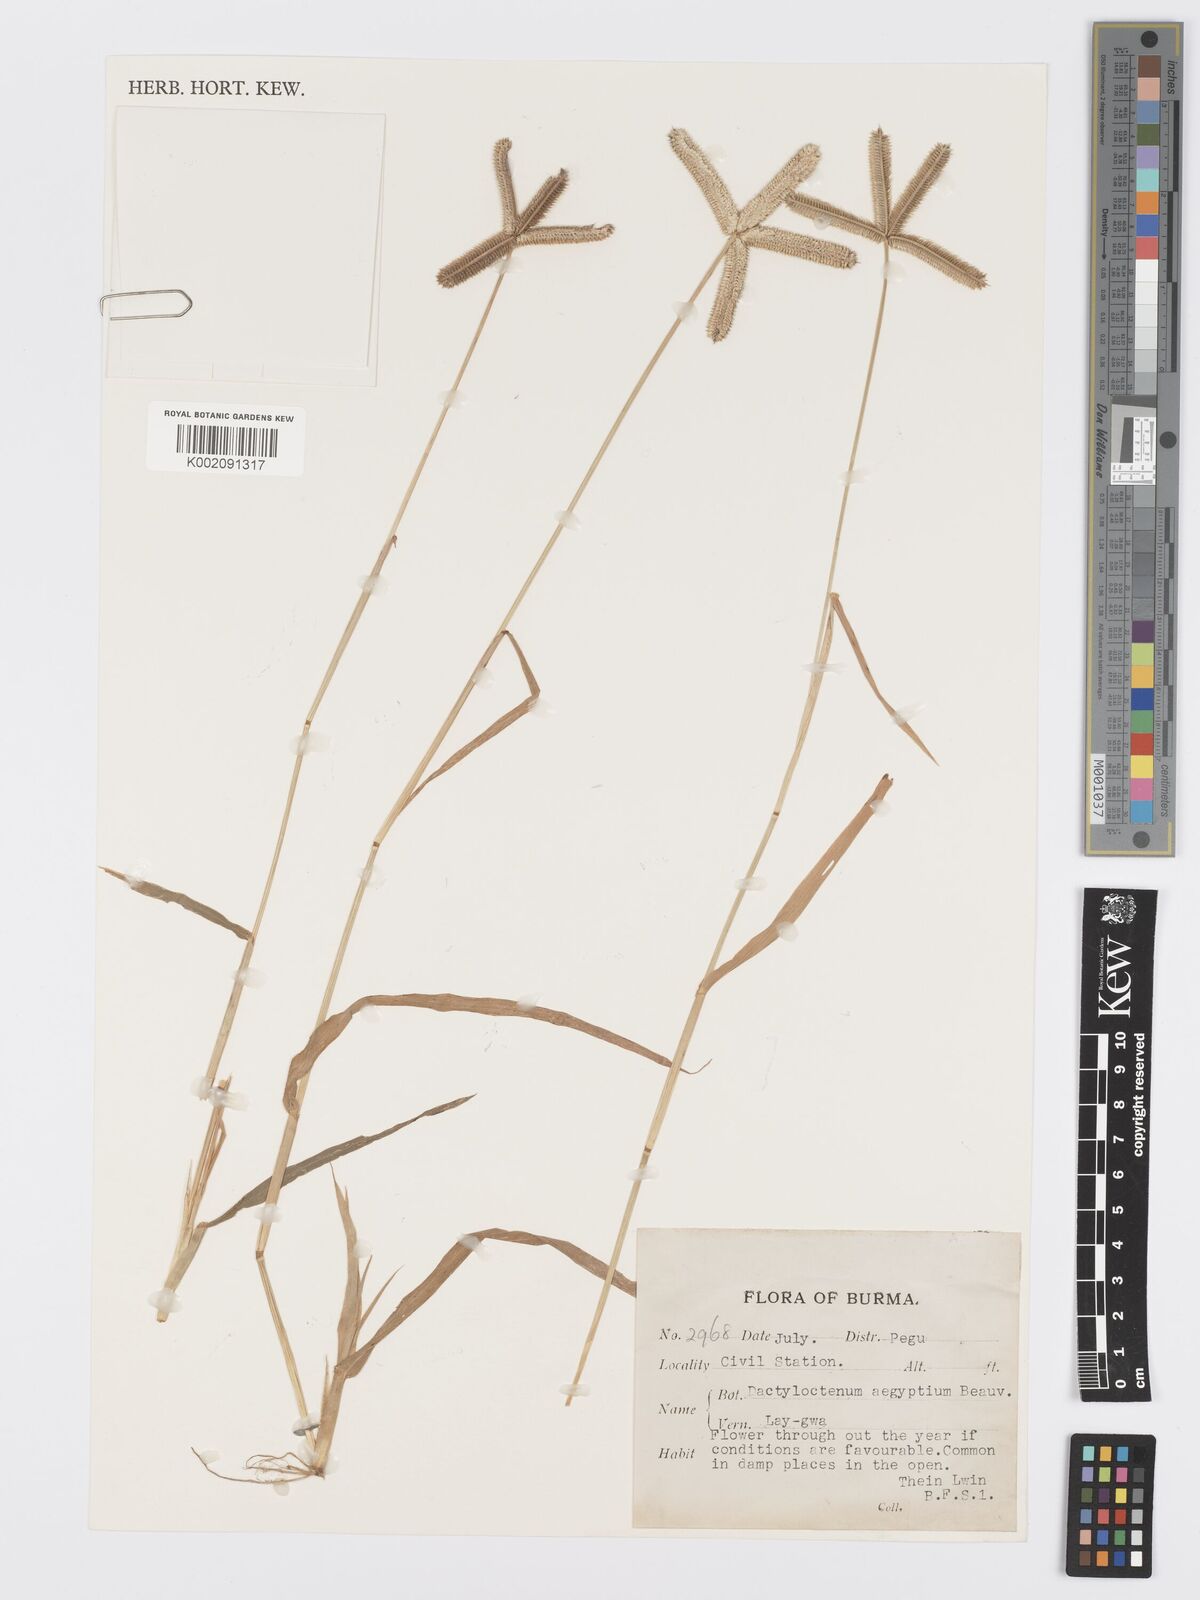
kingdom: Plantae
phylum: Tracheophyta
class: Liliopsida
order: Poales
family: Poaceae
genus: Dactyloctenium
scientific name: Dactyloctenium aegyptium
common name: Egyptian grass
